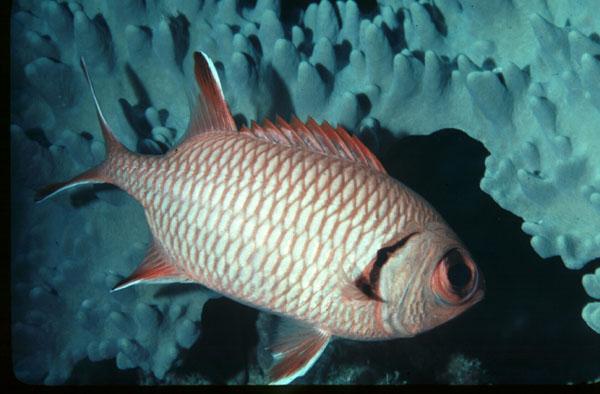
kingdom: Animalia
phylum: Chordata
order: Beryciformes
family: Holocentridae
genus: Myripristis
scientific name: Myripristis seychellensis
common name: Seychelles soldier
